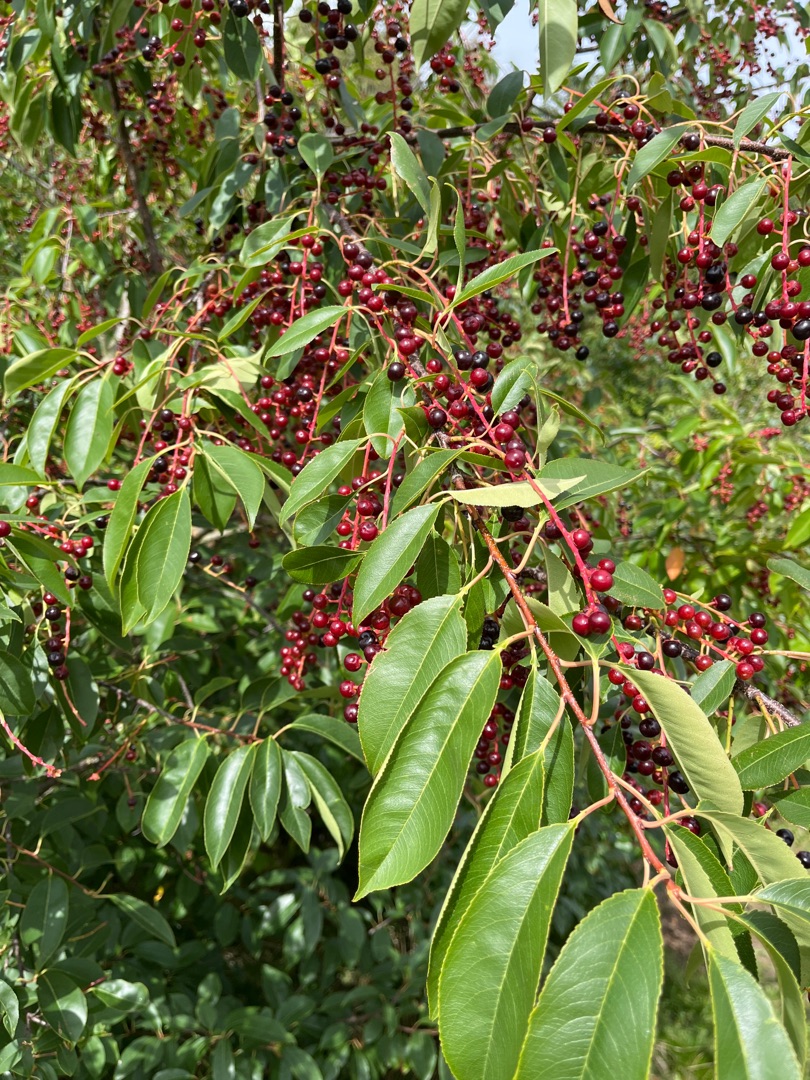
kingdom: Plantae
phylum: Tracheophyta
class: Magnoliopsida
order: Rosales
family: Rosaceae
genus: Prunus
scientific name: Prunus serotina
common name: Glansbladet hæg
